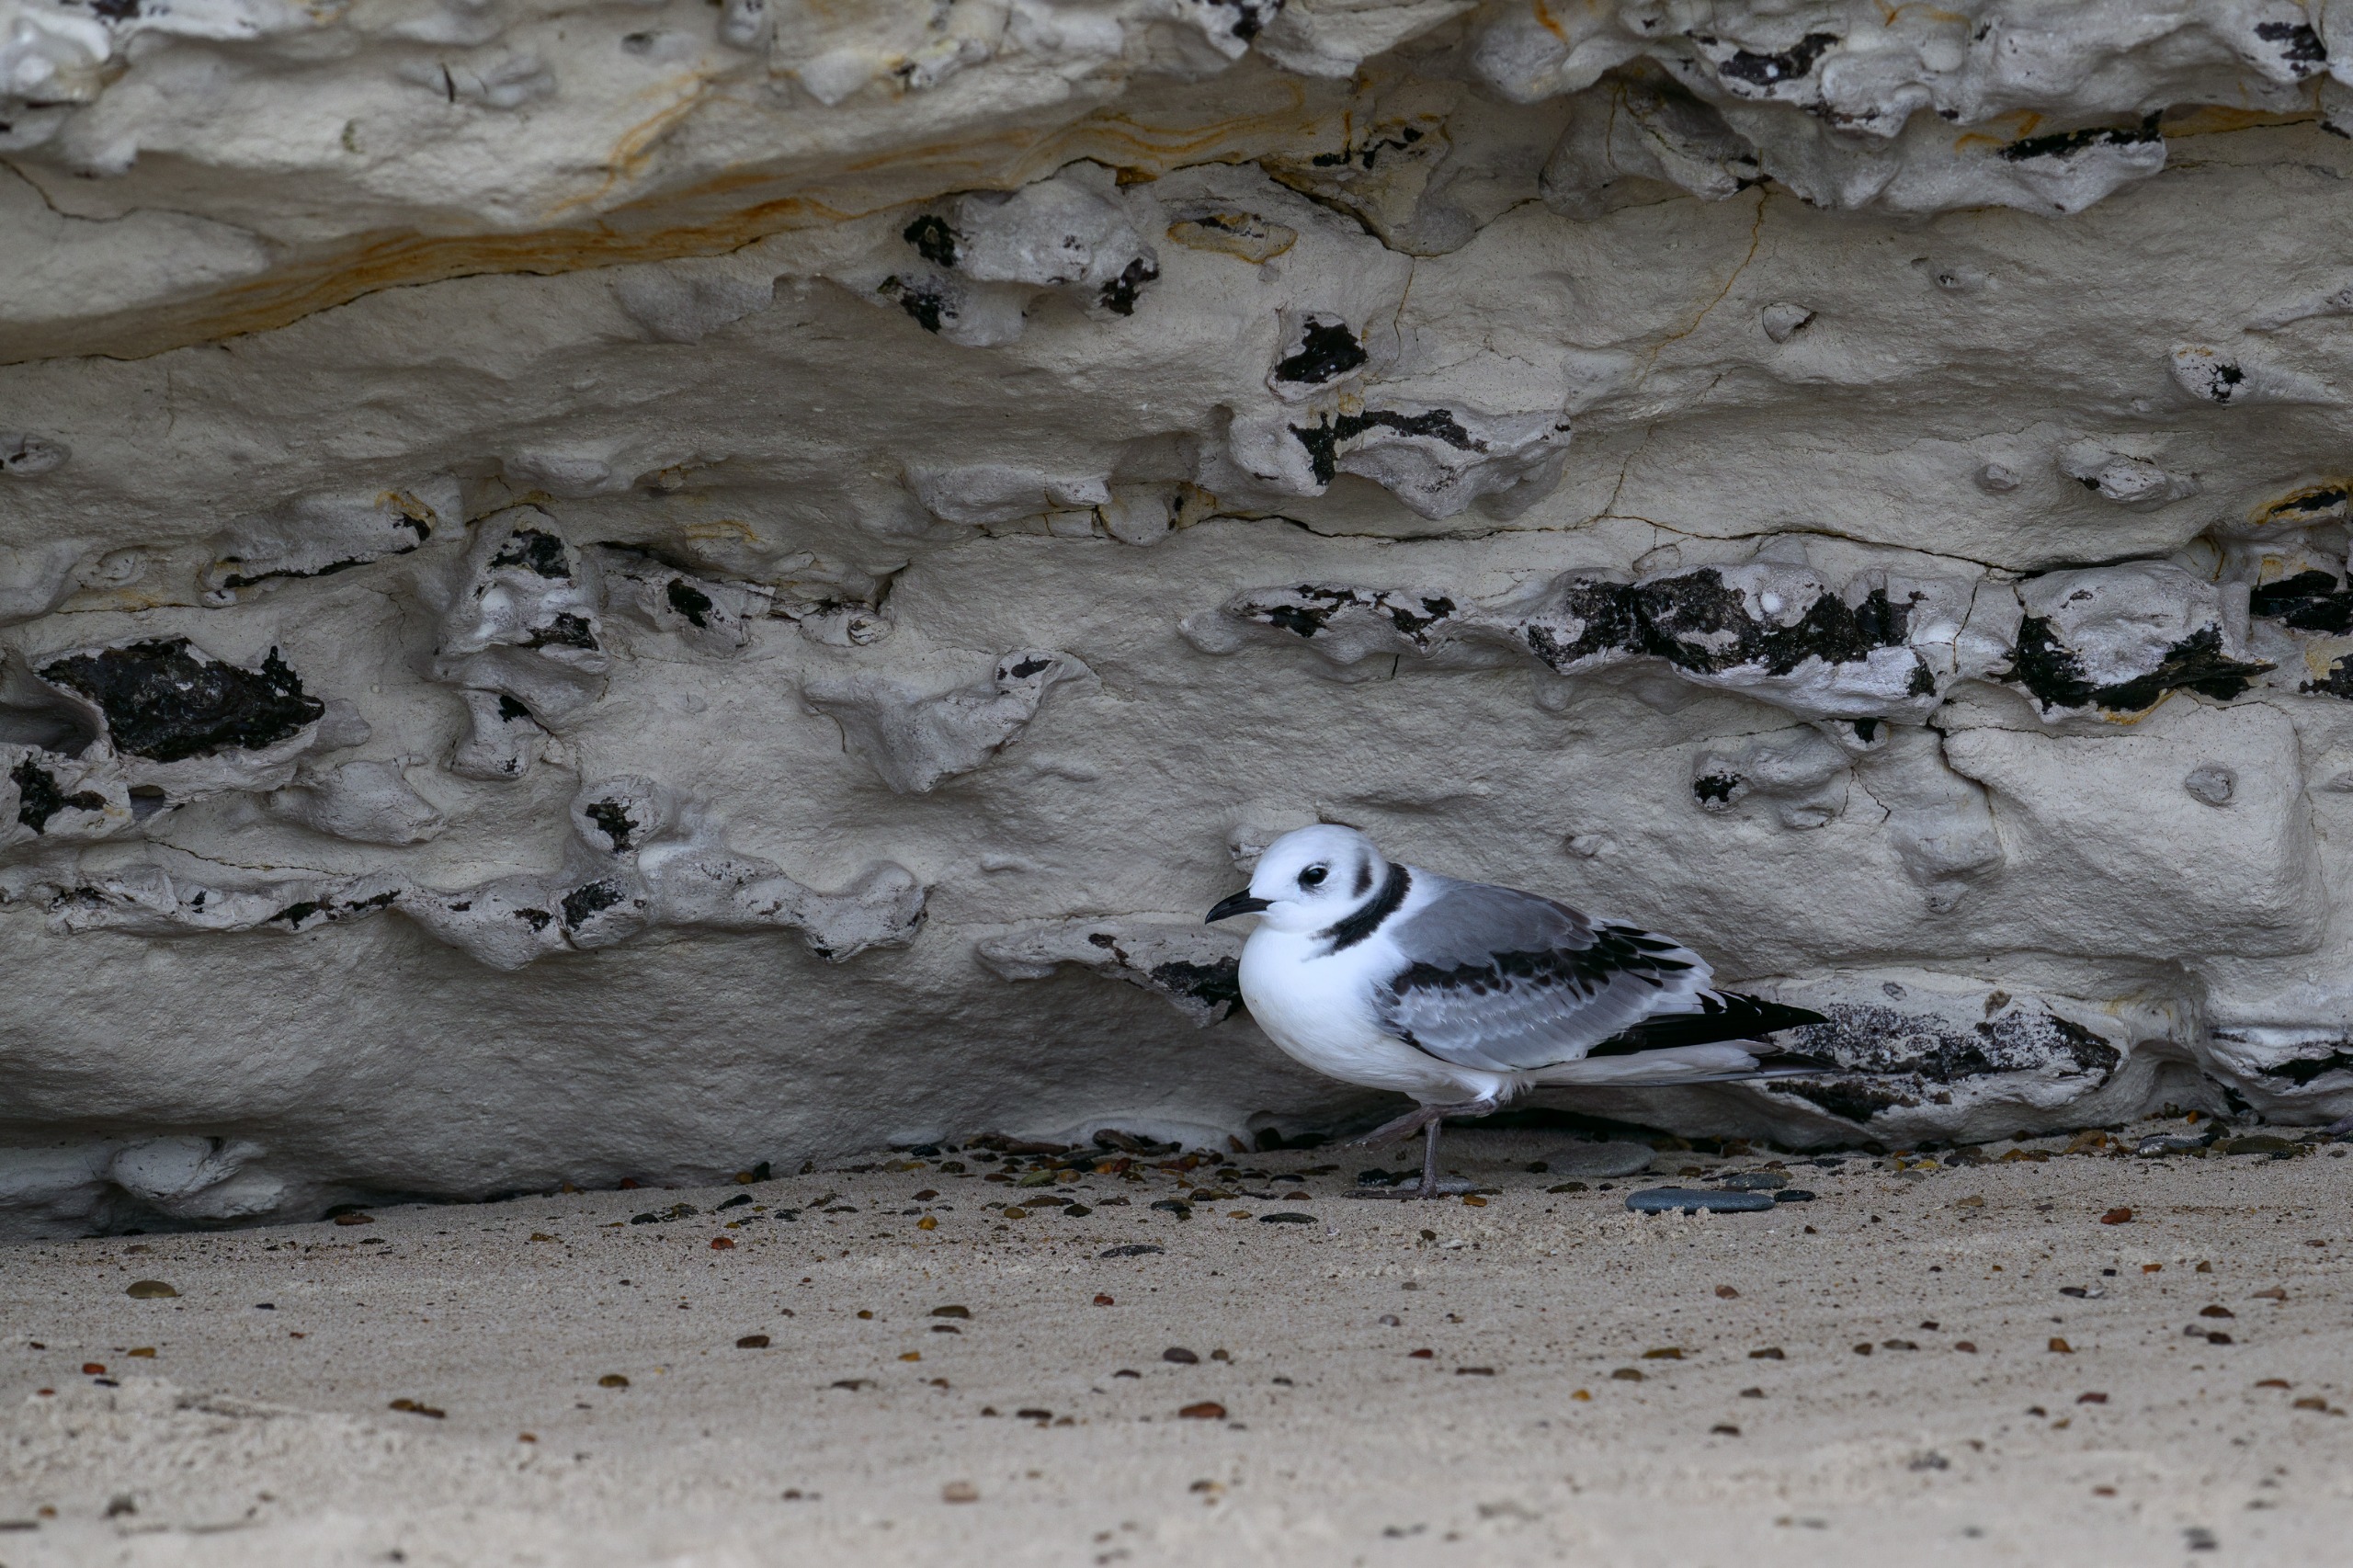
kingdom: Animalia
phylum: Chordata
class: Aves
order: Charadriiformes
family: Laridae
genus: Rissa
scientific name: Rissa tridactyla
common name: Ride
